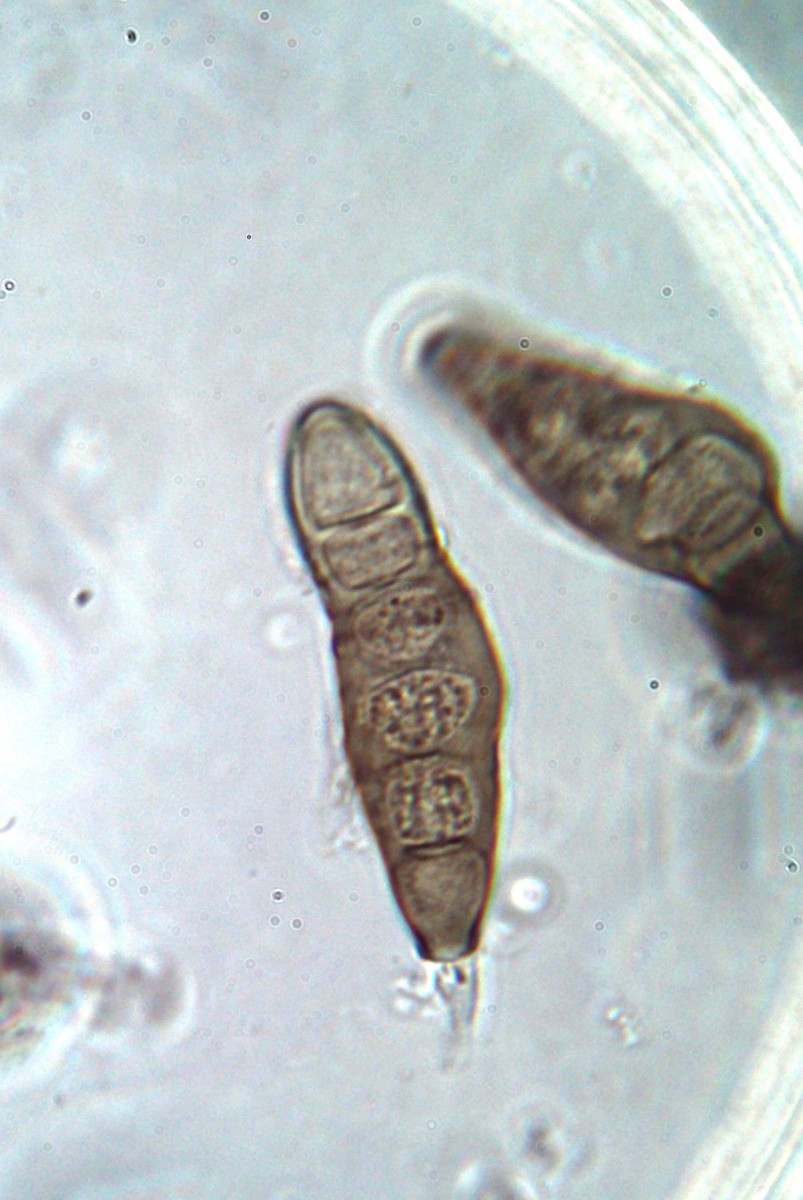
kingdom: Fungi
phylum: Ascomycota
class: Sordariomycetes
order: Diaporthales
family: Coryneaceae
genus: Coryneum
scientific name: Coryneum lanciforme
